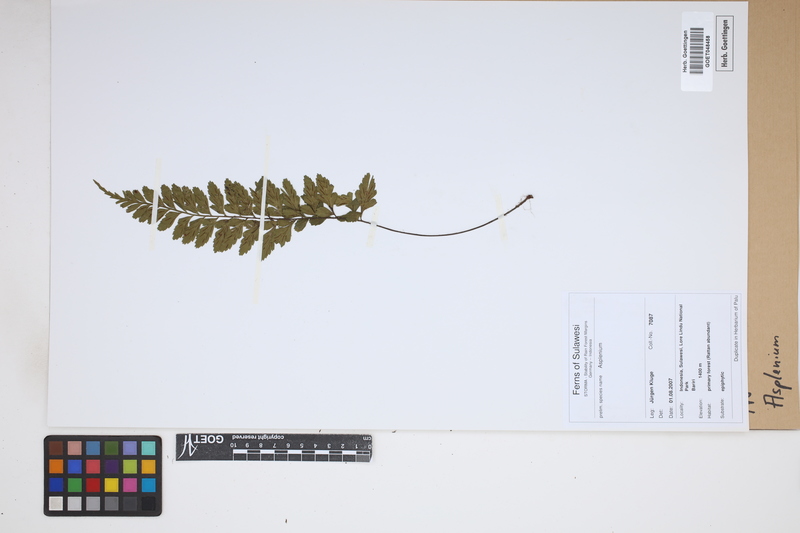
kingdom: Plantae
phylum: Tracheophyta
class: Polypodiopsida
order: Polypodiales
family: Aspleniaceae
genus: Asplenium
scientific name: Asplenium
